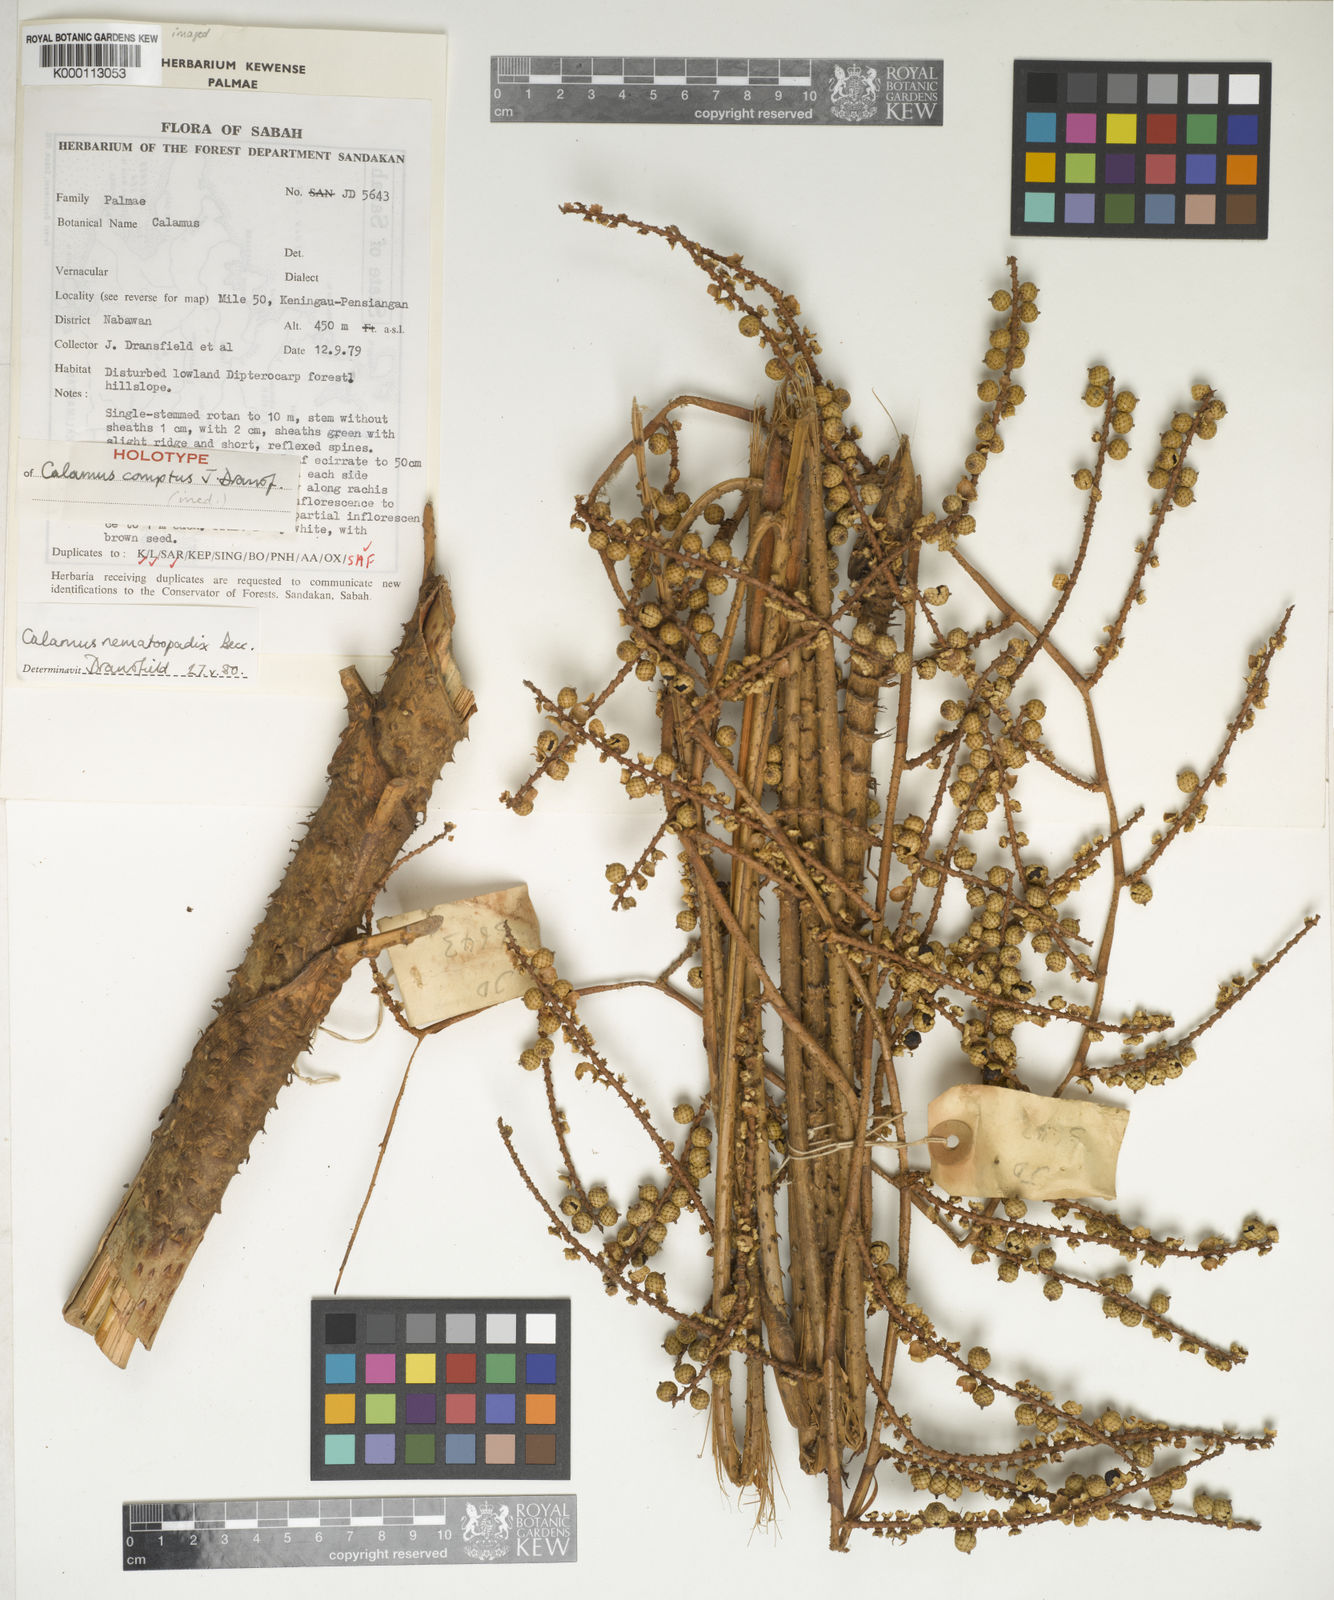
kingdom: Plantae
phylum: Tracheophyta
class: Liliopsida
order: Arecales
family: Arecaceae
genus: Calamus
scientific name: Calamus comptus
